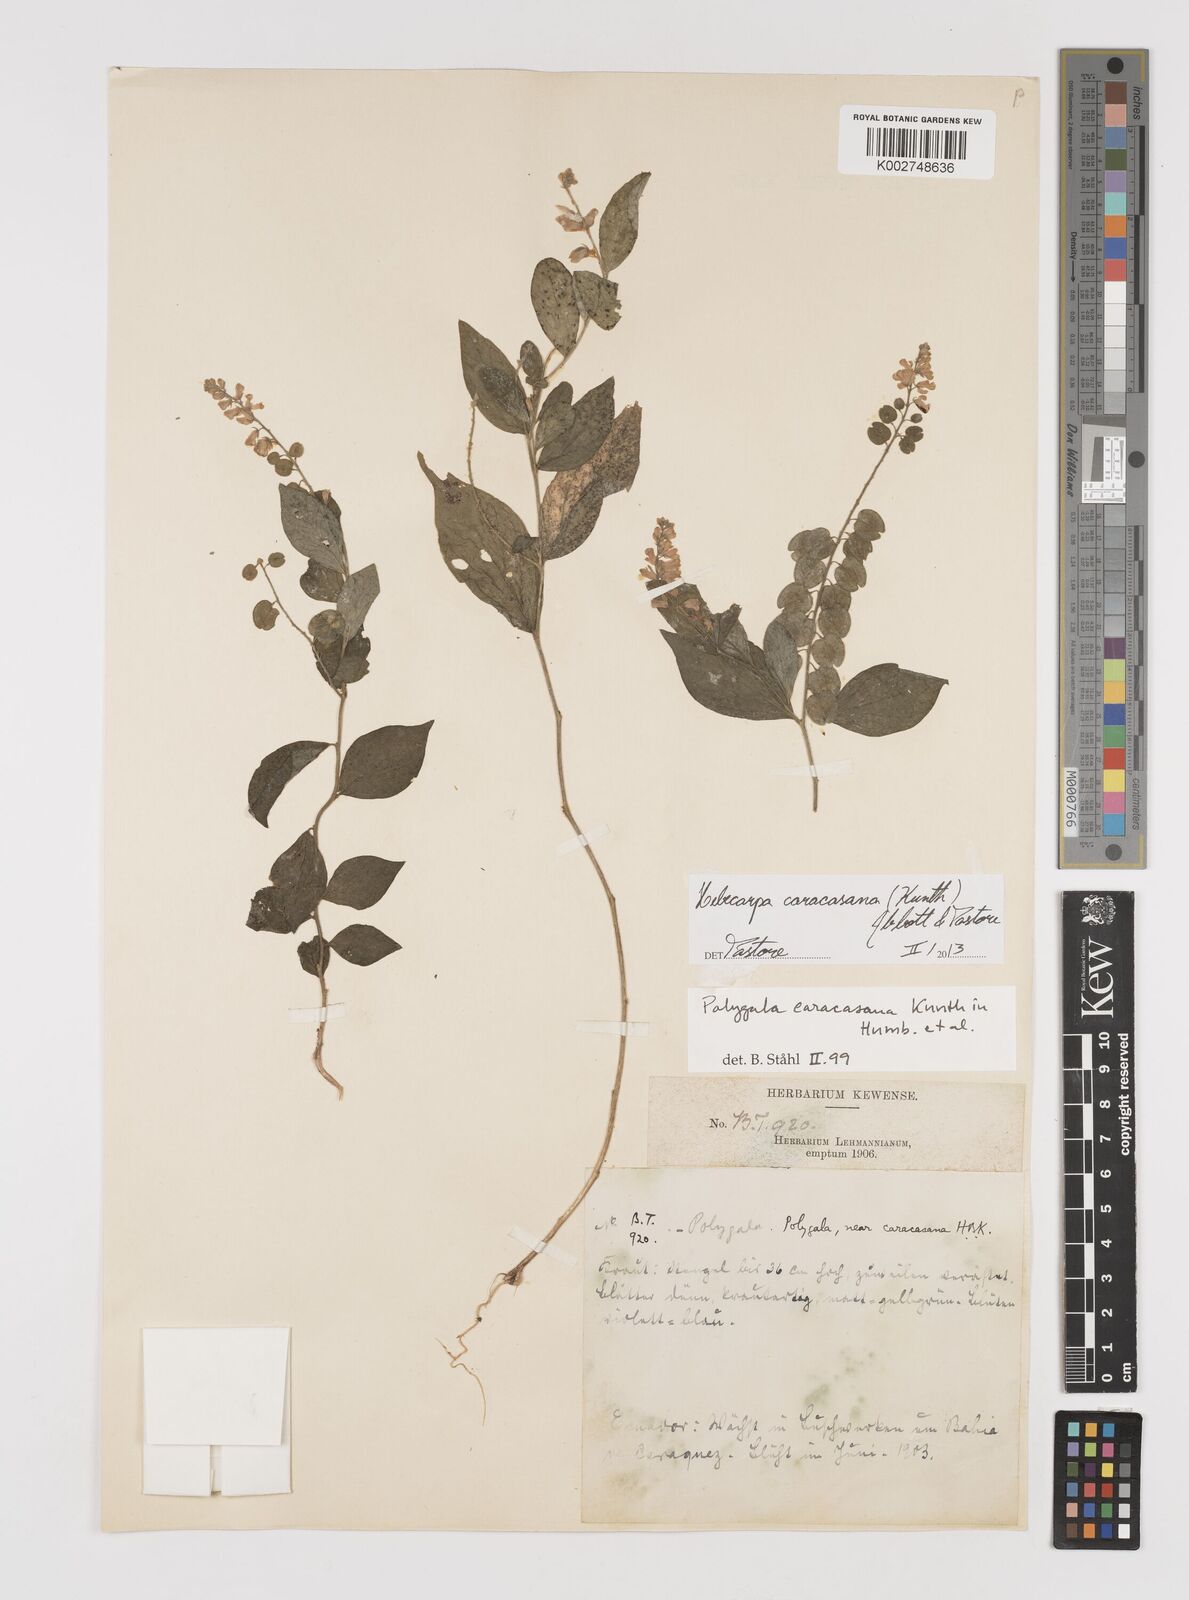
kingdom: Plantae
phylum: Tracheophyta
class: Magnoliopsida
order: Fabales
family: Polygalaceae
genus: Hebecarpa
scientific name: Hebecarpa caracasana
